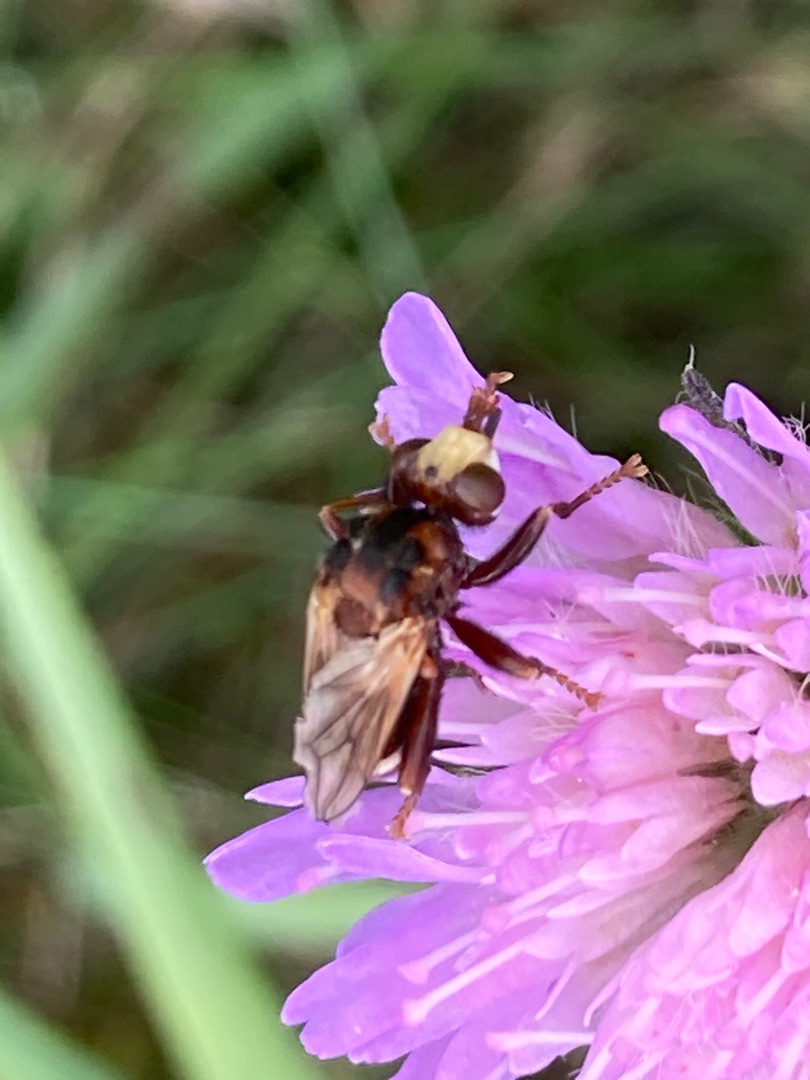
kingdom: Animalia
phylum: Arthropoda
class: Insecta
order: Diptera
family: Conopidae
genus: Sicus
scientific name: Sicus ferrugineus
